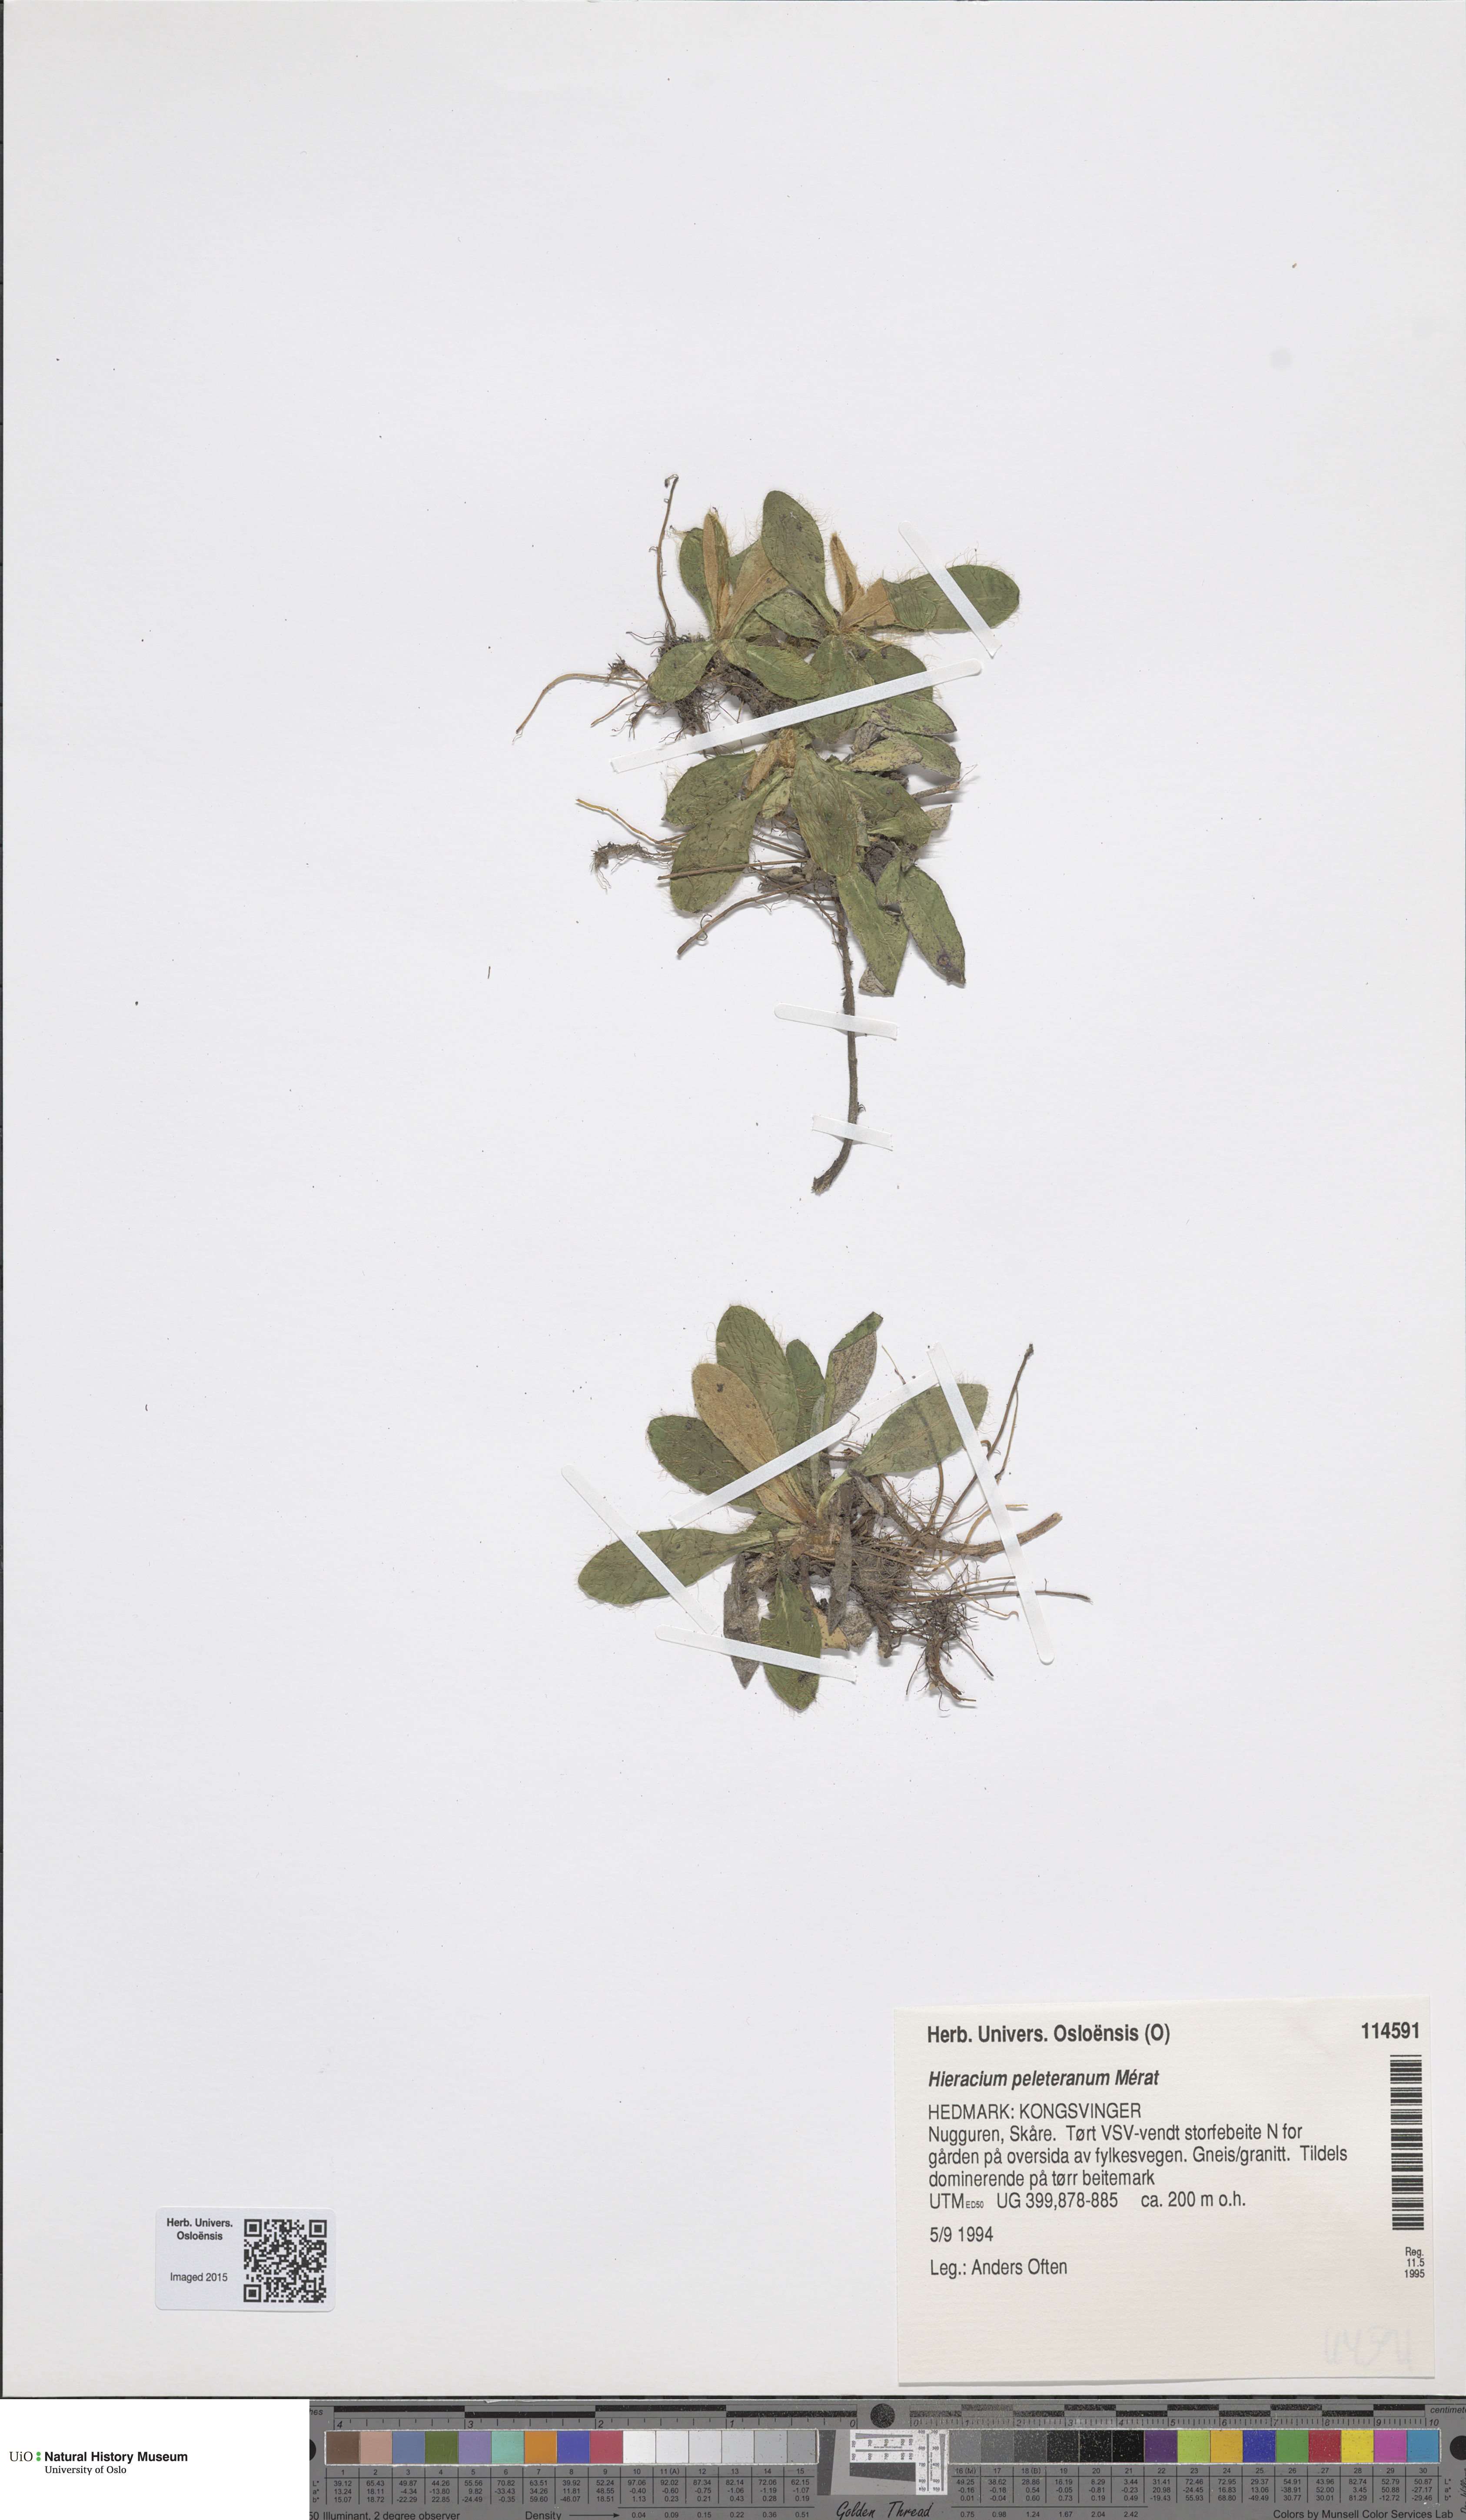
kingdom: Plantae
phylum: Tracheophyta
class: Magnoliopsida
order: Asterales
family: Asteraceae
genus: Pilosella
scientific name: Pilosella peleteriana
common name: Shaggy mouse-ear-hawkweed
